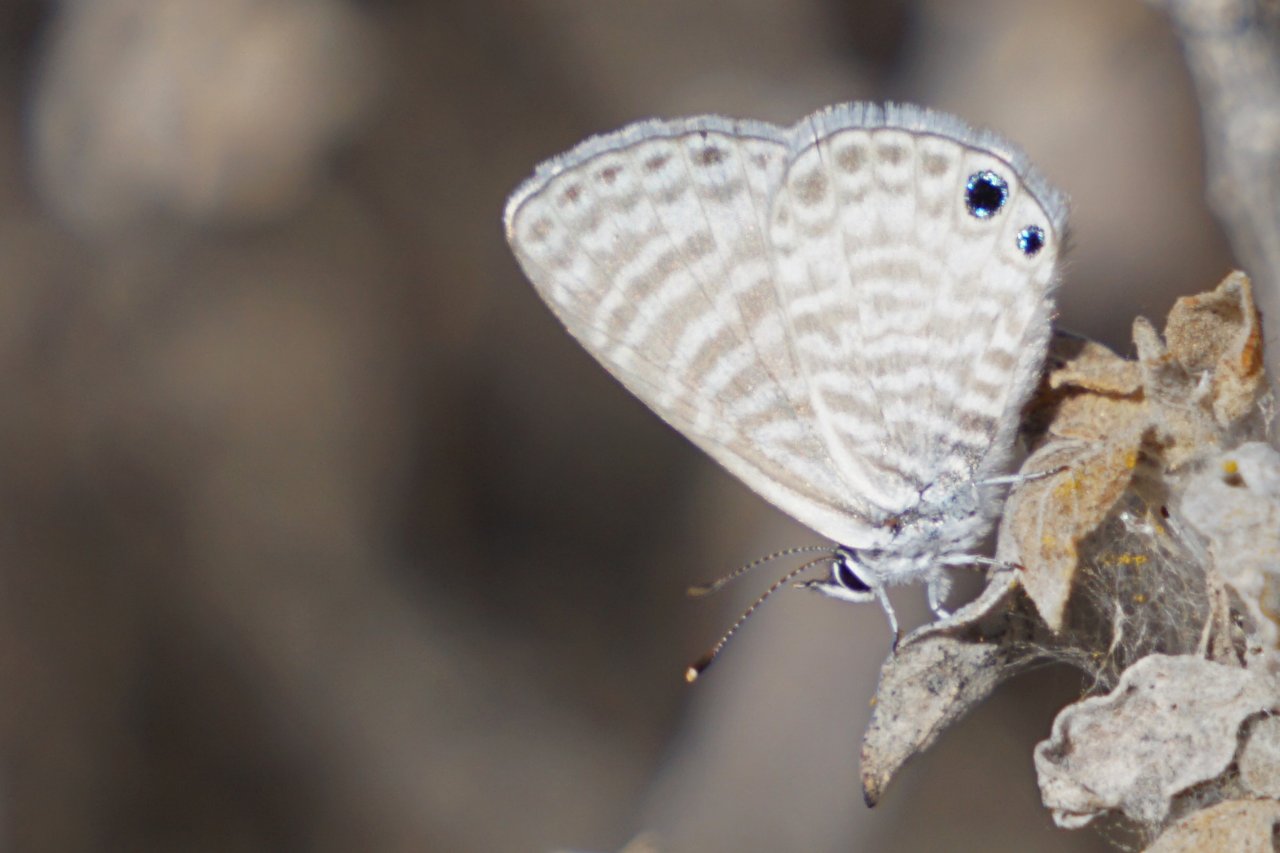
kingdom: Animalia
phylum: Arthropoda
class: Insecta
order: Lepidoptera
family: Lycaenidae
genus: Leptotes
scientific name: Leptotes marina
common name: Marine Blue
